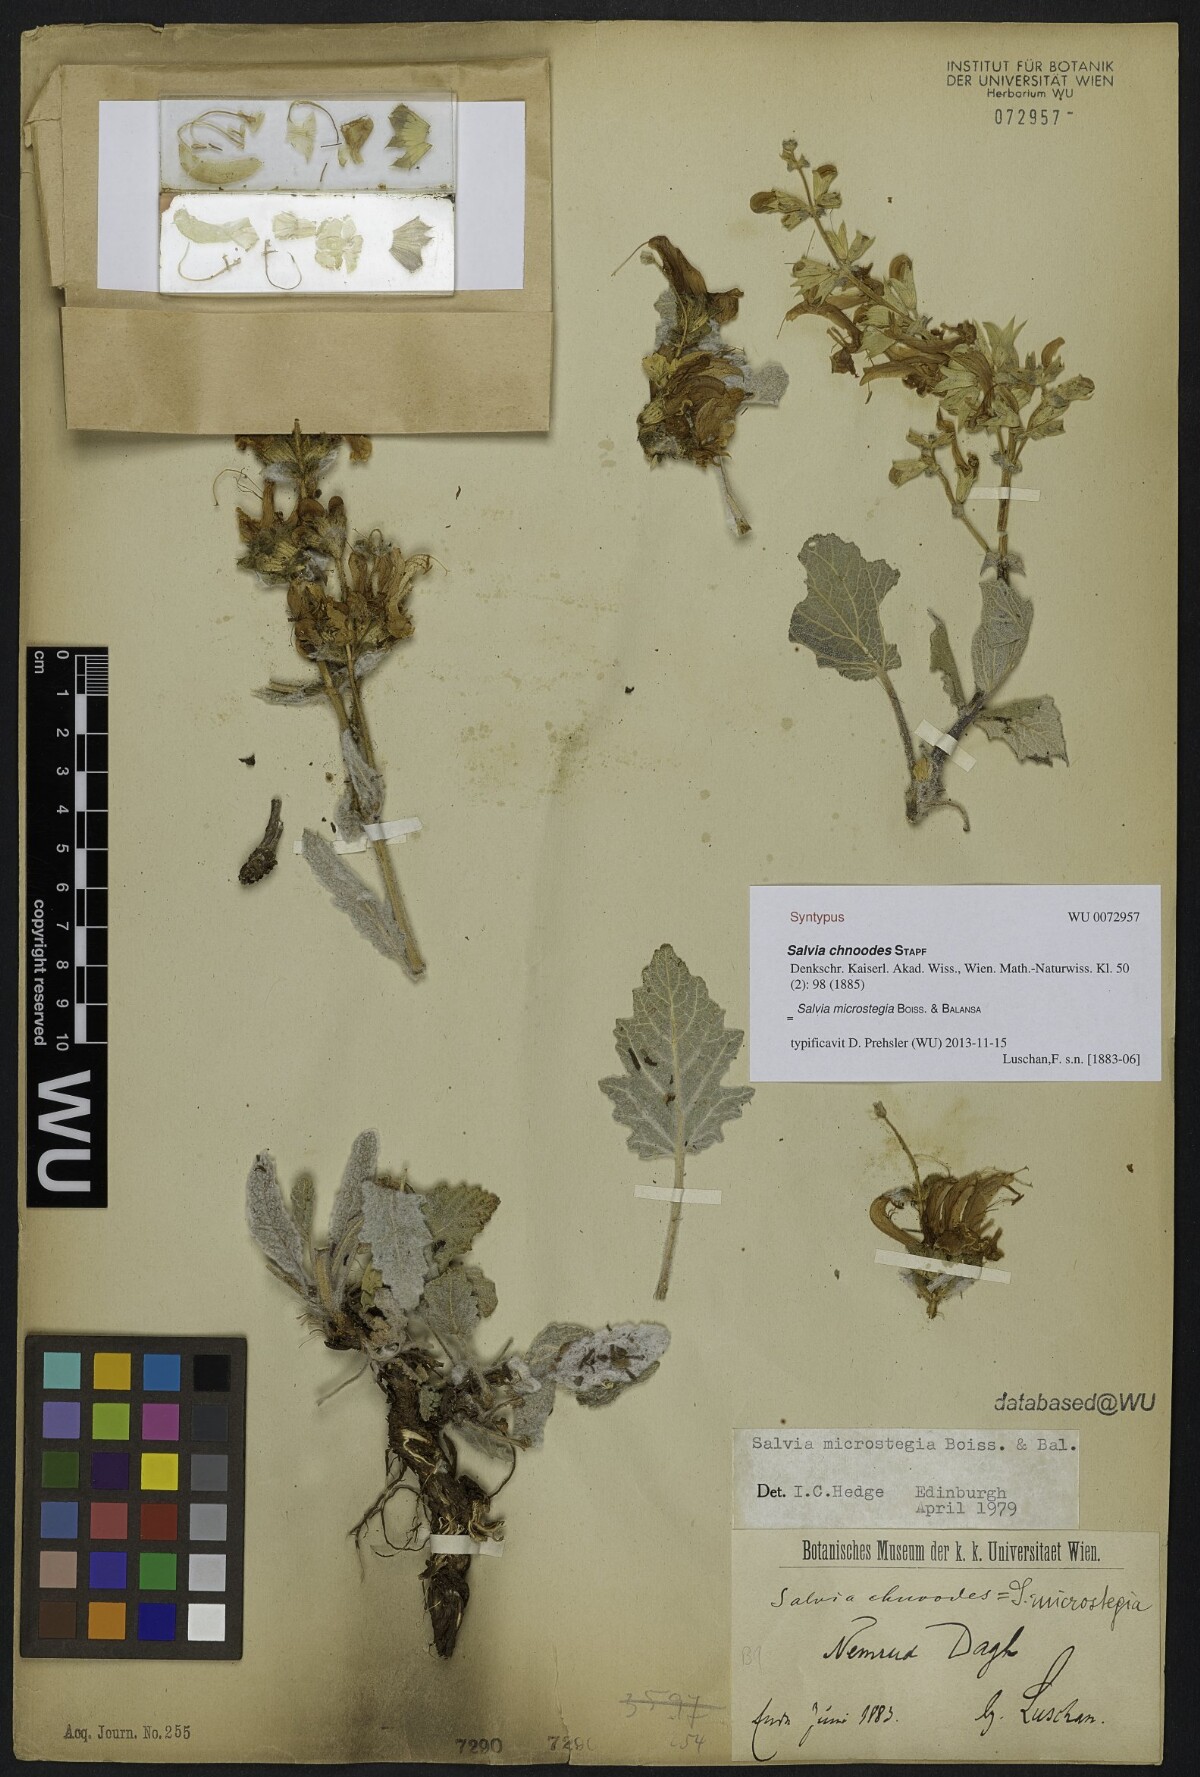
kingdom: Plantae
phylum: Tracheophyta
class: Magnoliopsida
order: Lamiales
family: Lamiaceae
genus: Salvia
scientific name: Salvia microstegia
